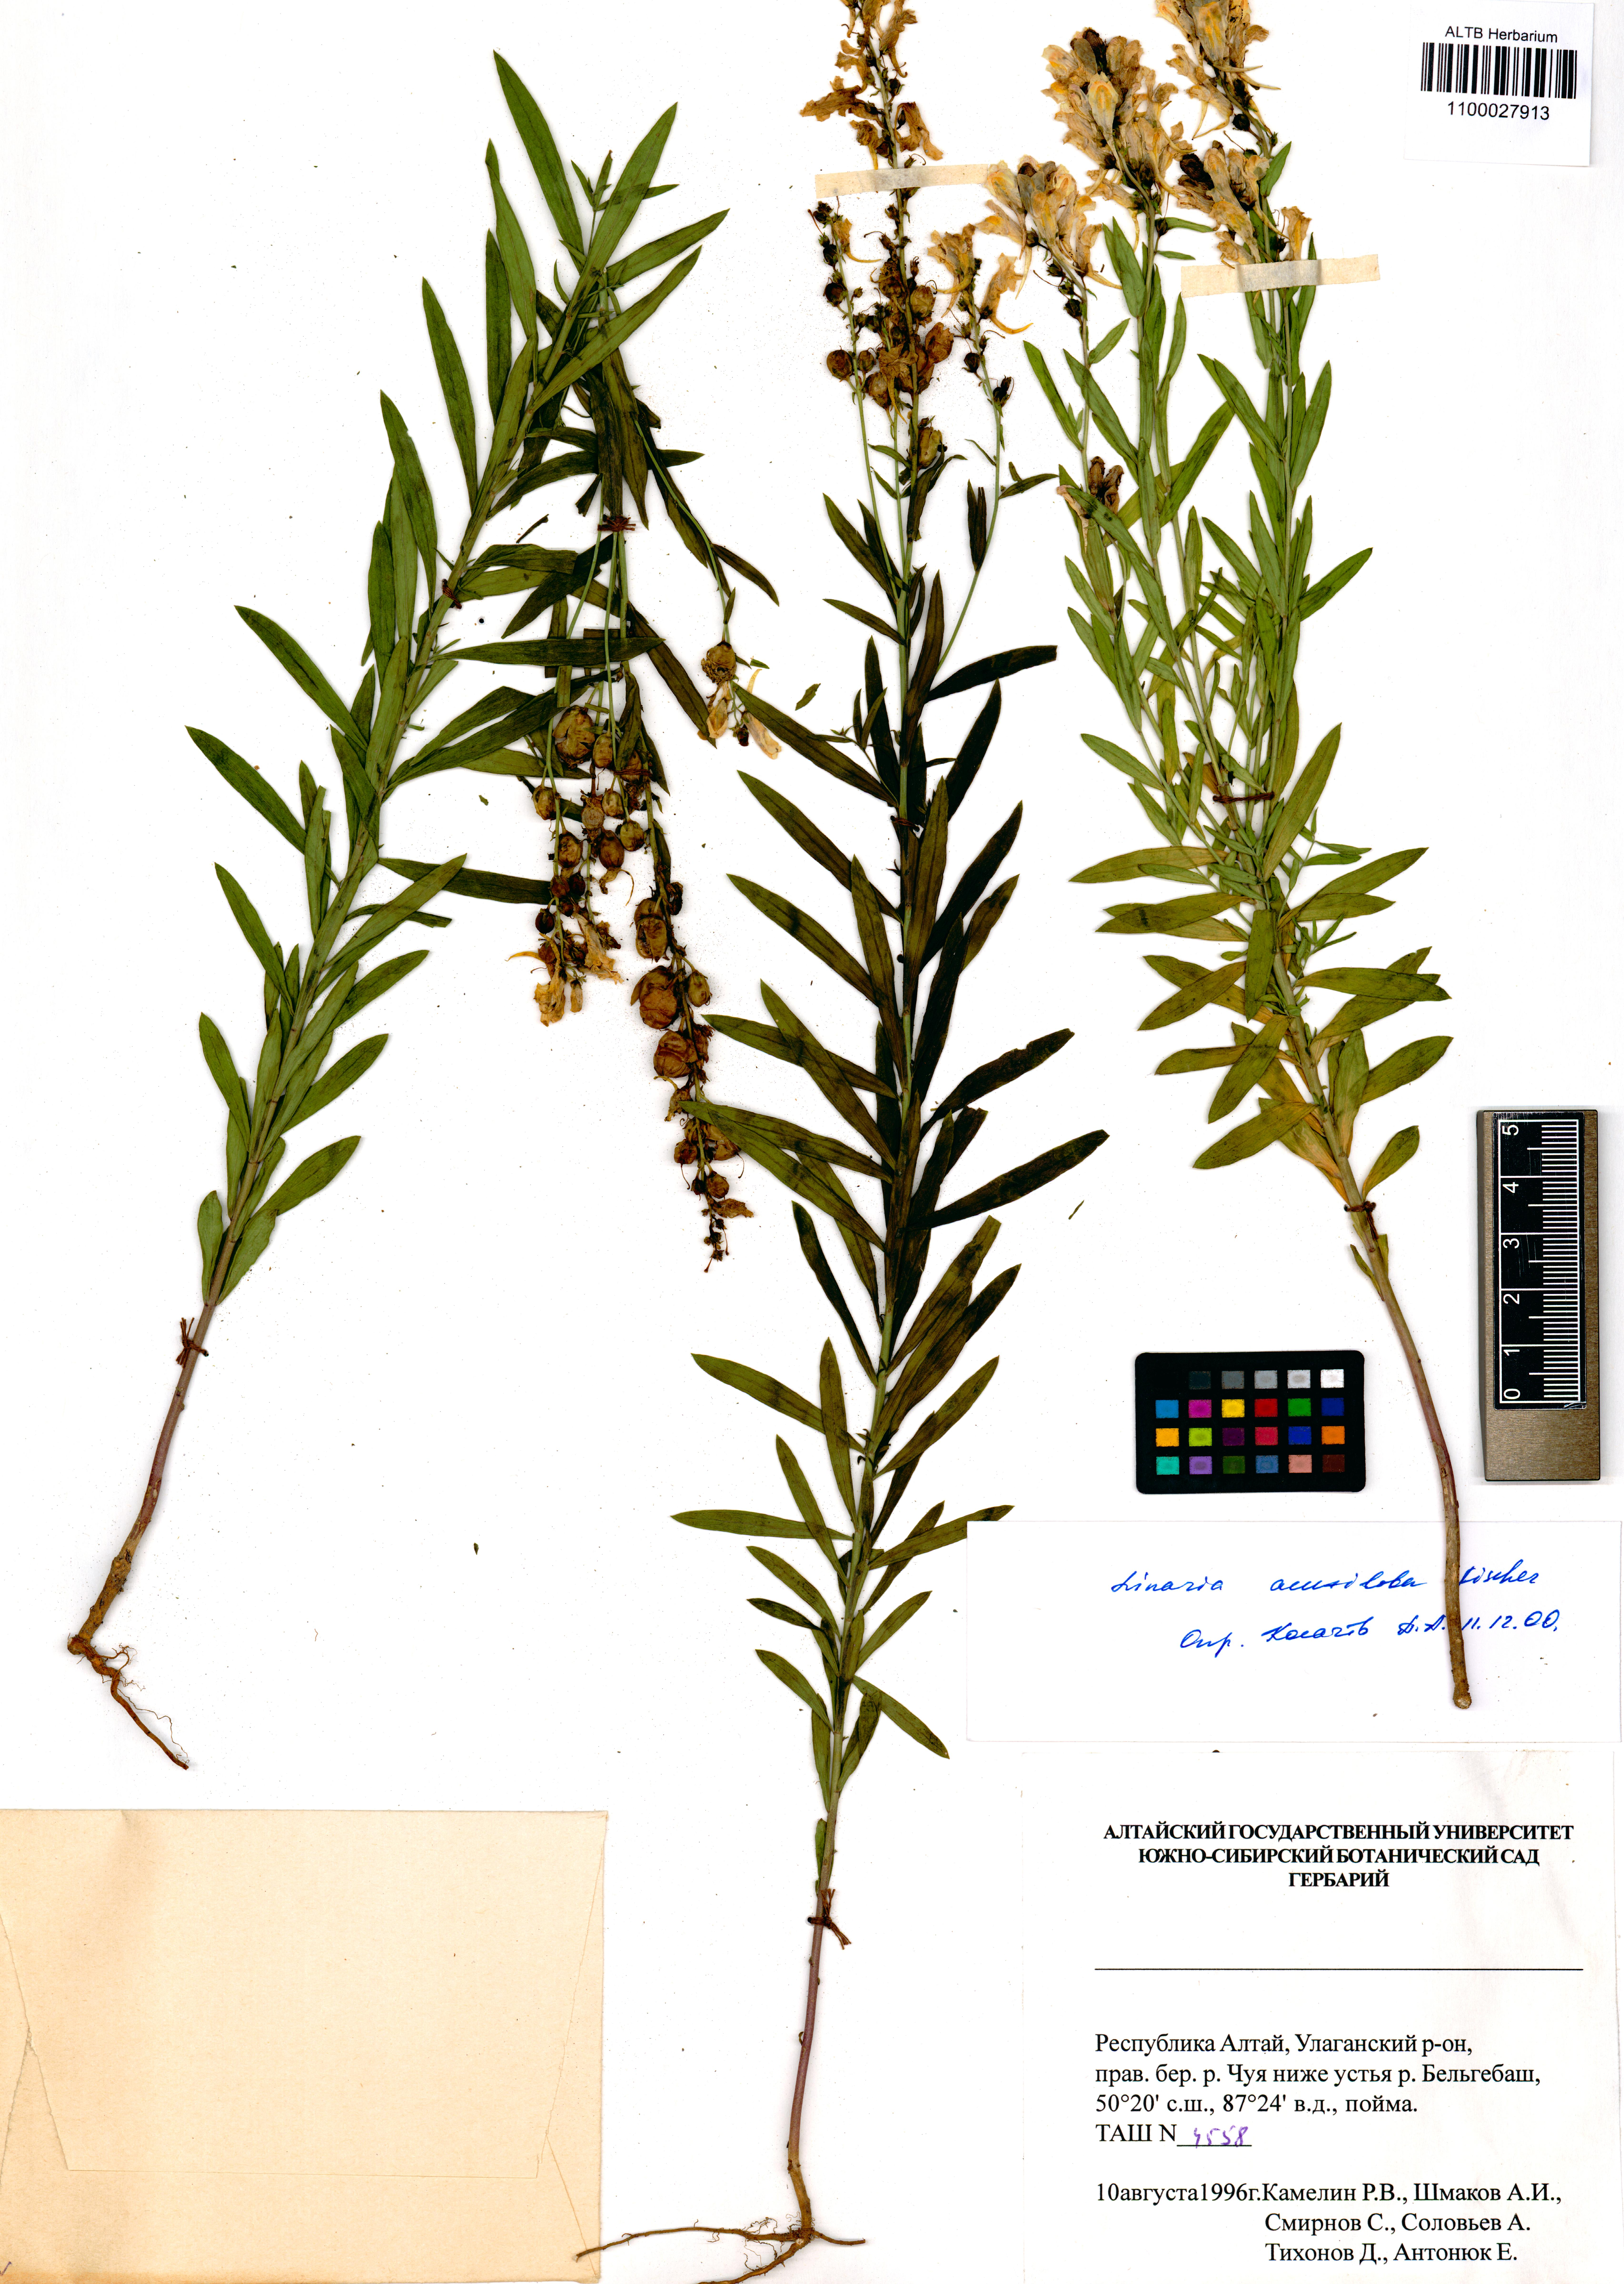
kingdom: Plantae
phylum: Tracheophyta
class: Magnoliopsida
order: Lamiales
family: Plantaginaceae
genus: Linaria
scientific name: Linaria acutiloba
